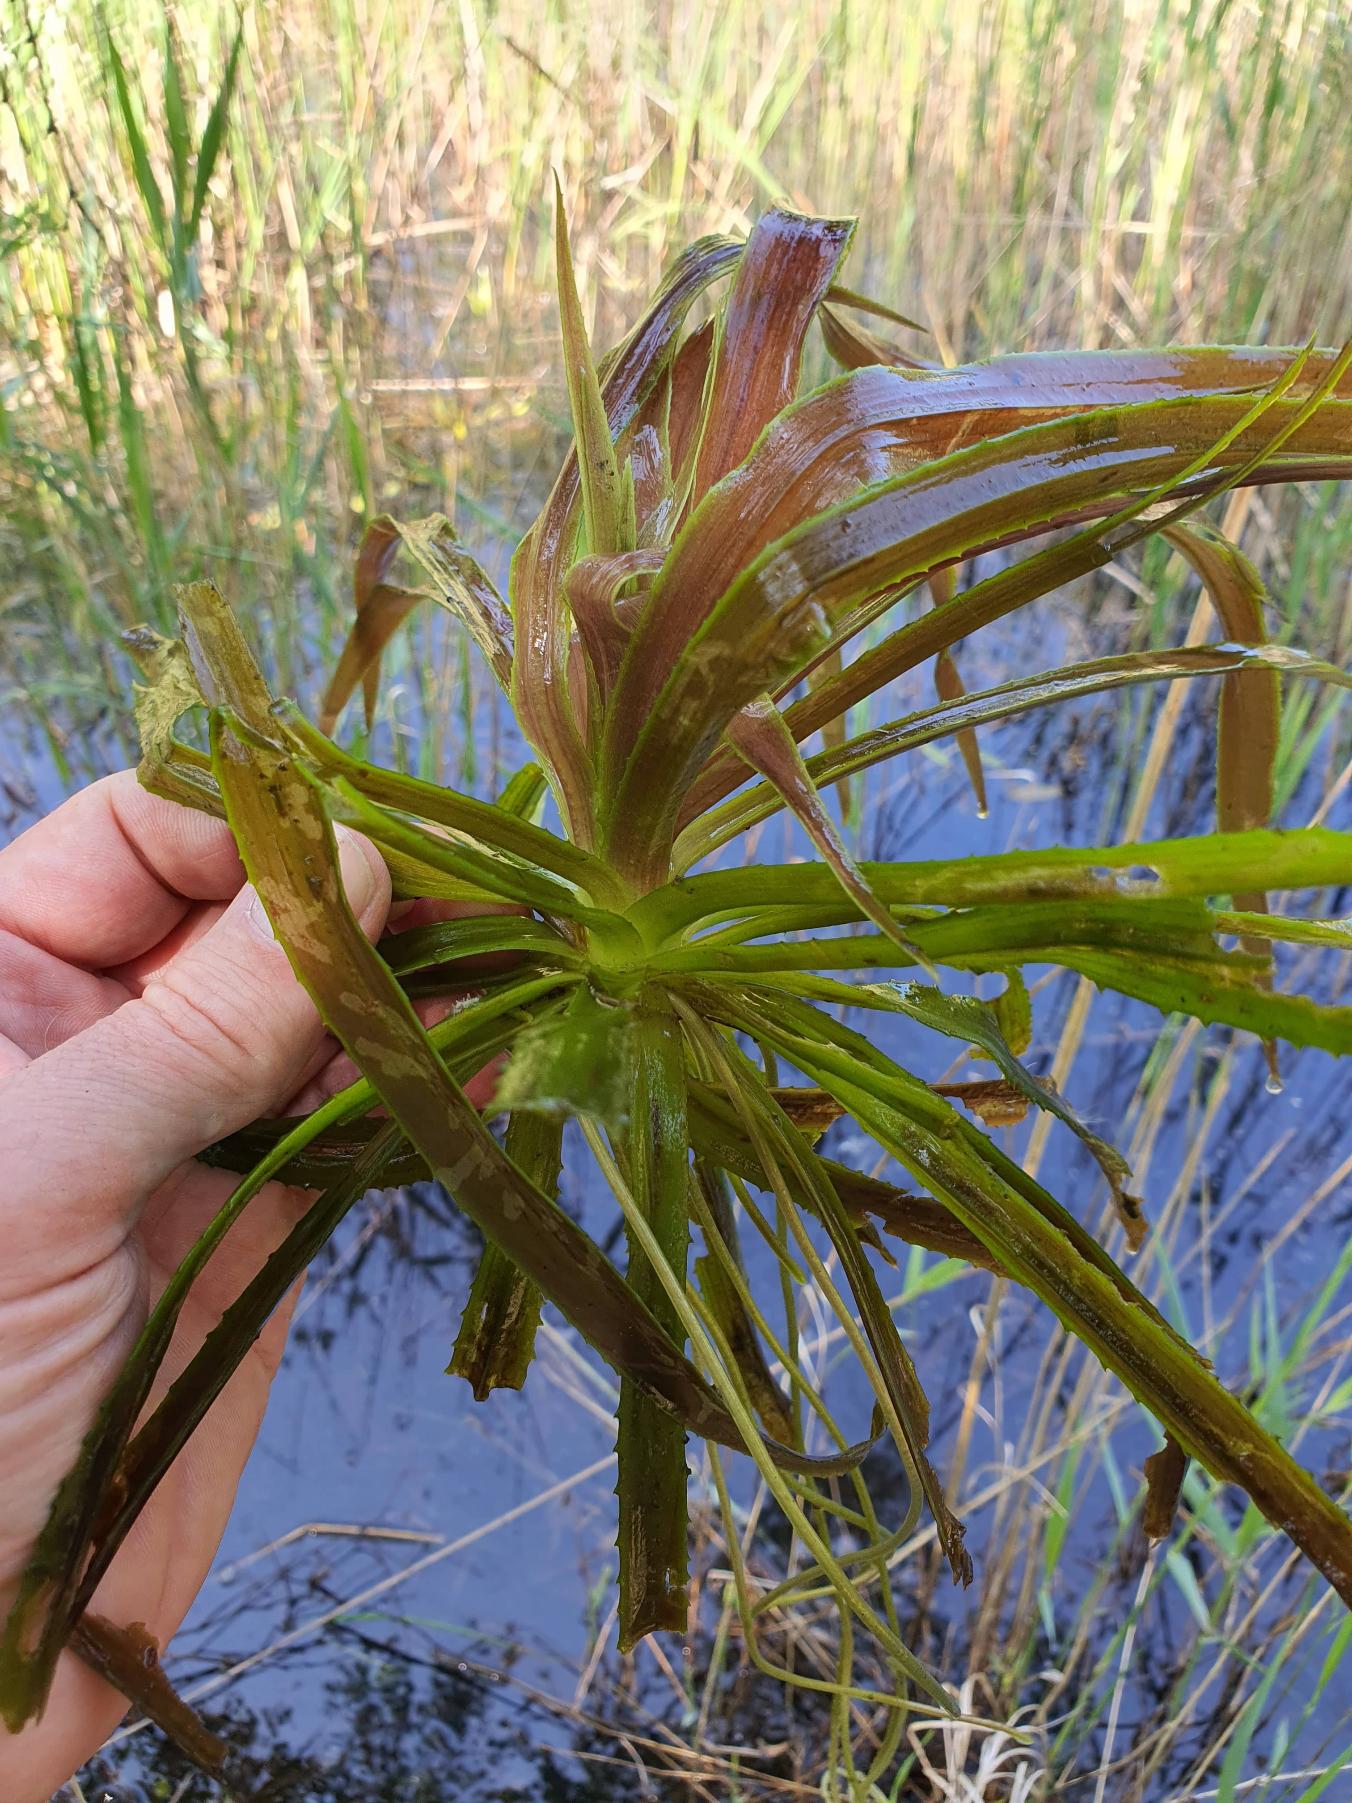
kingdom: Plantae
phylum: Tracheophyta
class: Liliopsida
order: Alismatales
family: Hydrocharitaceae
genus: Stratiotes
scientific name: Stratiotes aloides
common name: Krebseklo
